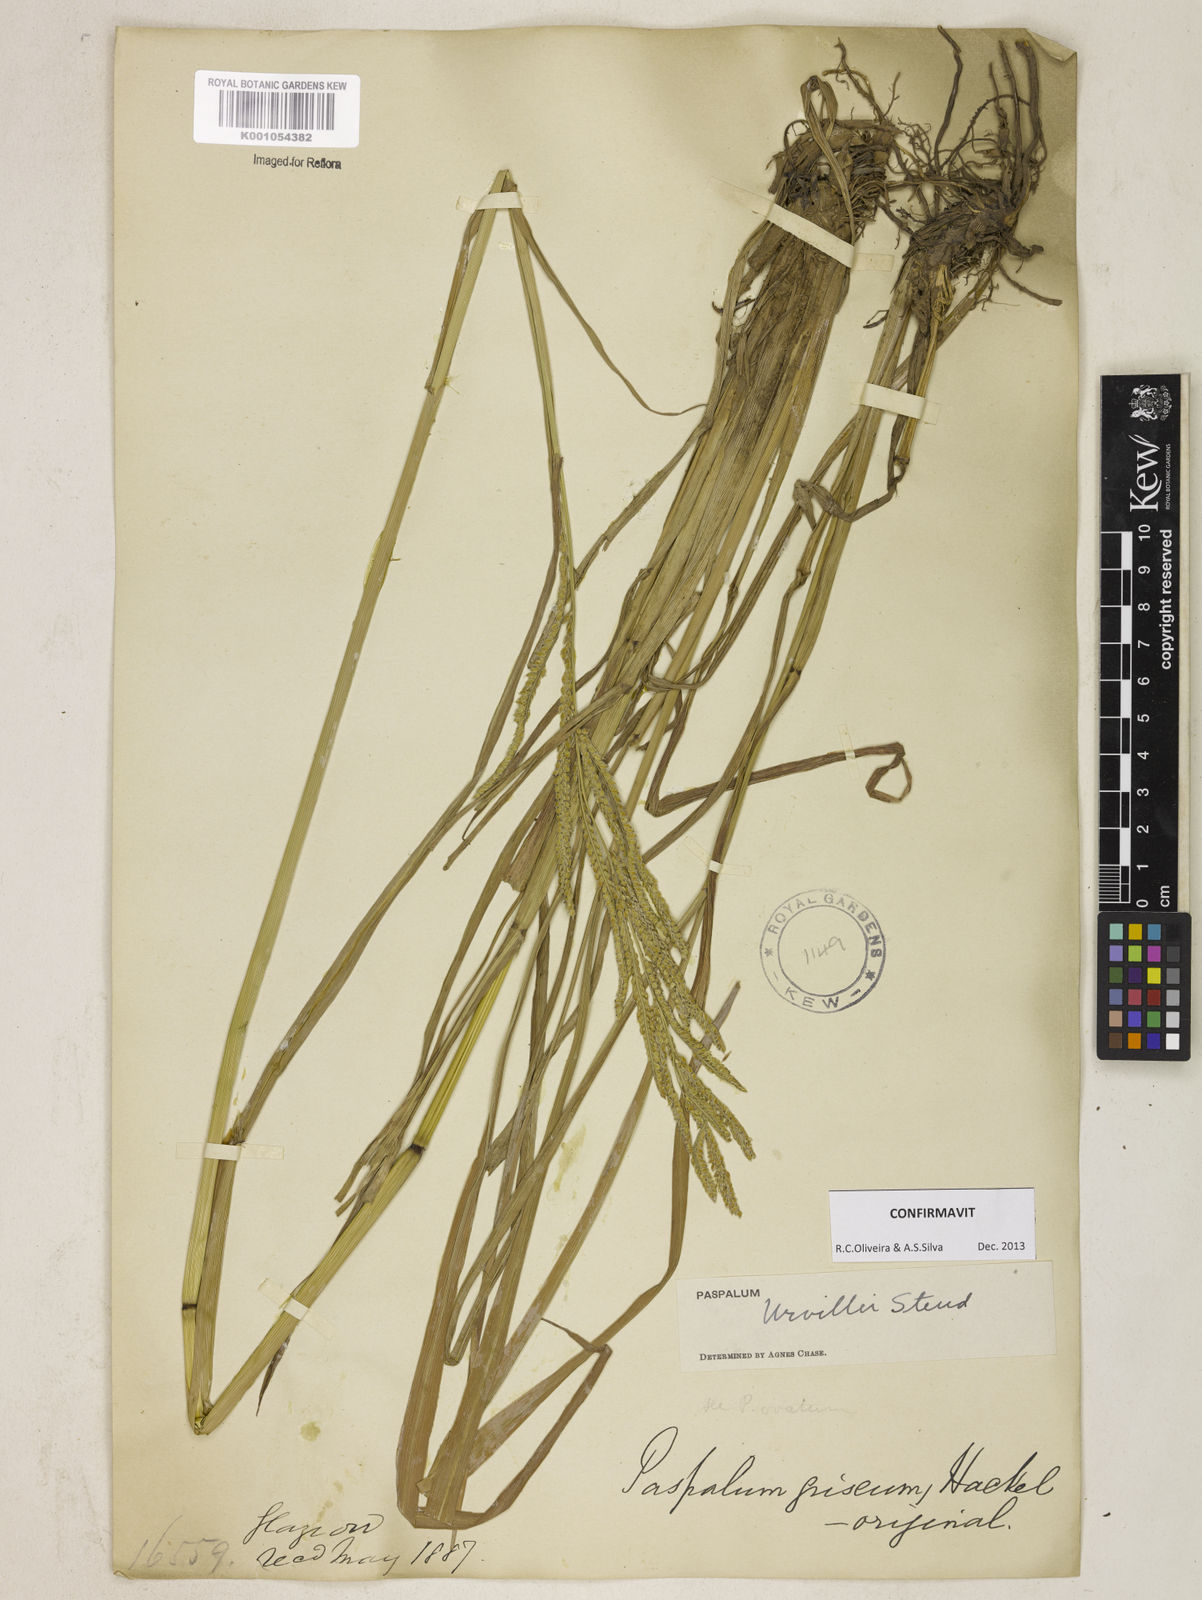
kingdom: Plantae
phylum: Tracheophyta
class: Liliopsida
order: Poales
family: Poaceae
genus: Paspalum
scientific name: Paspalum urvillei
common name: Vasey's grass
